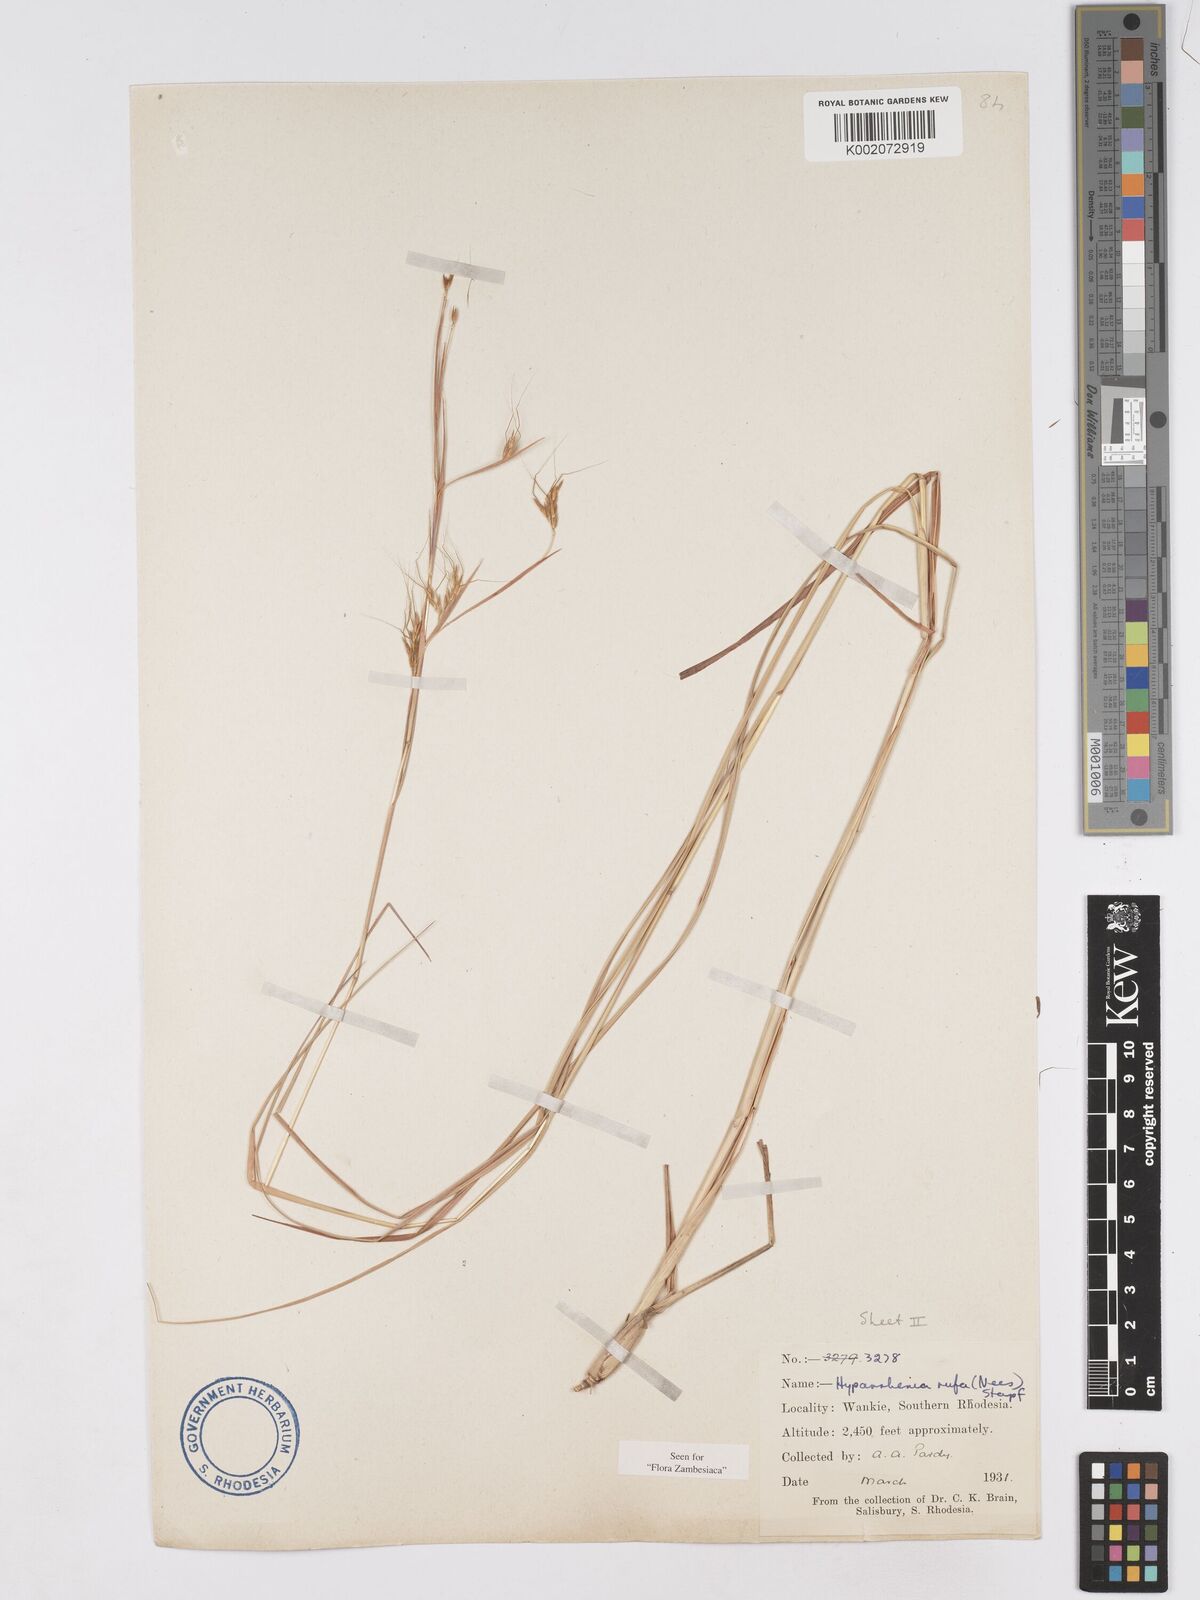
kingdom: Plantae
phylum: Tracheophyta
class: Liliopsida
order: Poales
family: Poaceae
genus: Hyparrhenia
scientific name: Hyparrhenia rufa
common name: Jaraguagrass
